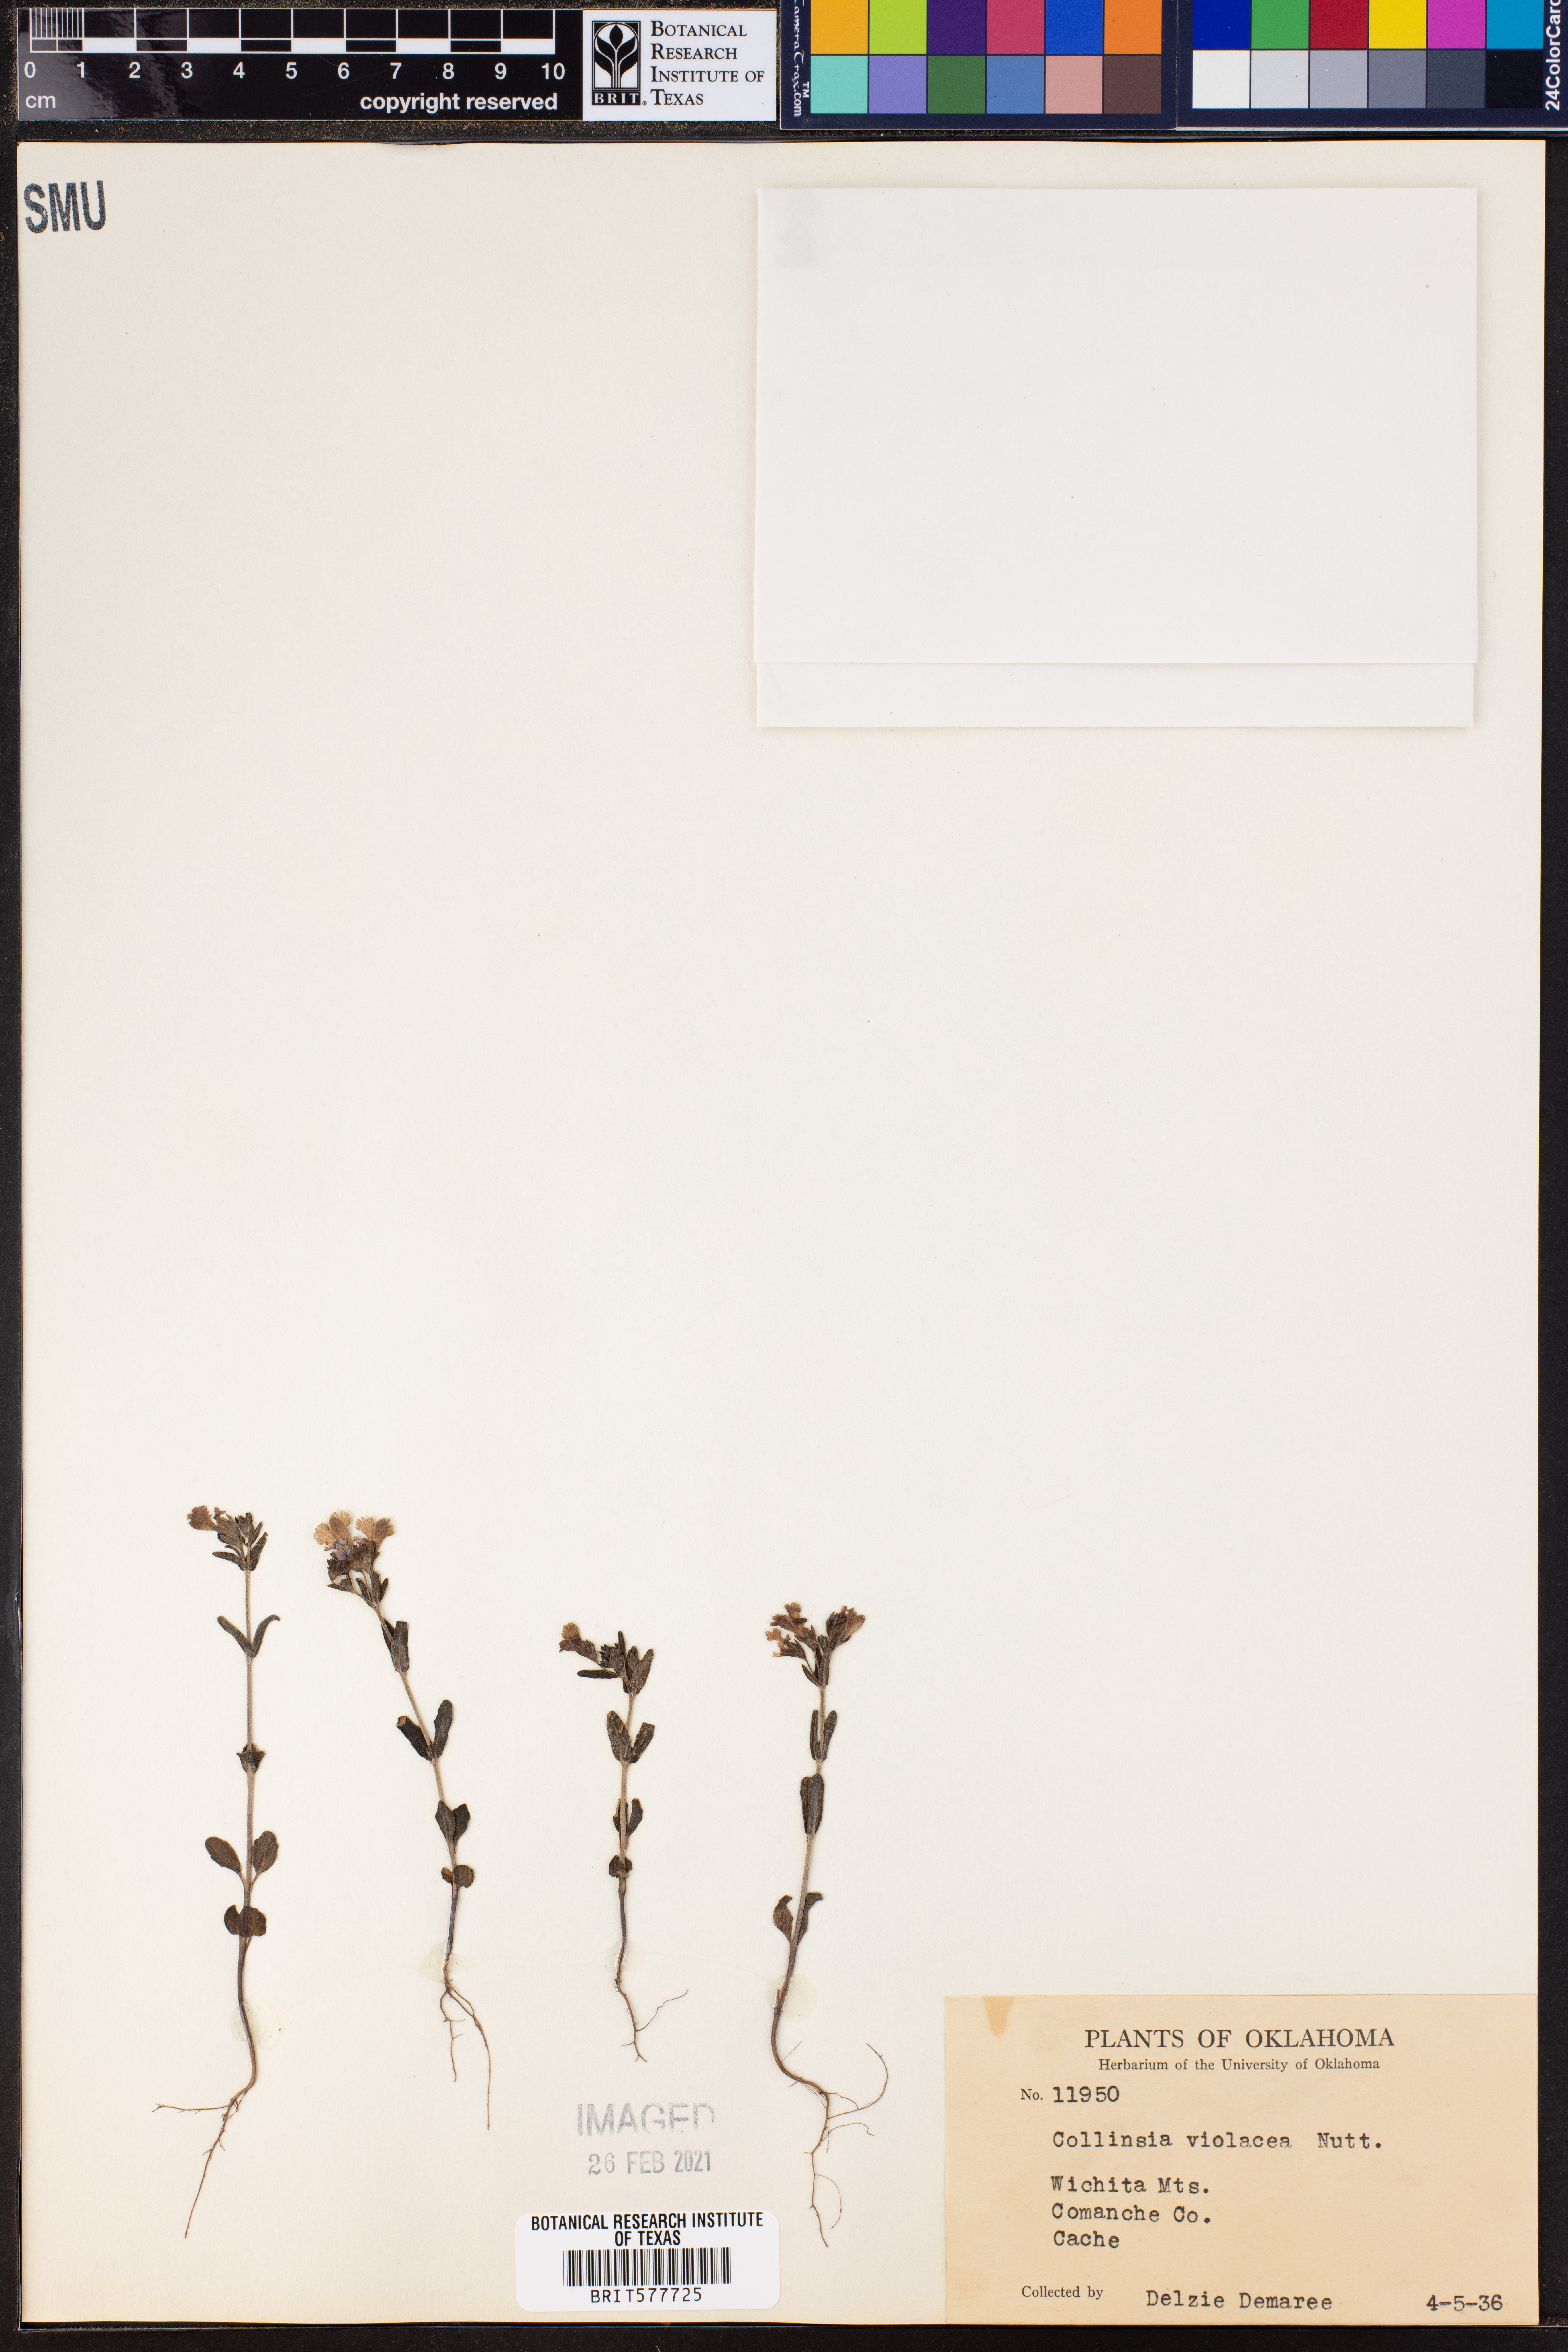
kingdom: Plantae
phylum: Tracheophyta
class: Magnoliopsida
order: Lamiales
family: Plantaginaceae
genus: Collinsia
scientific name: Collinsia violacea
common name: Violet collinsia
